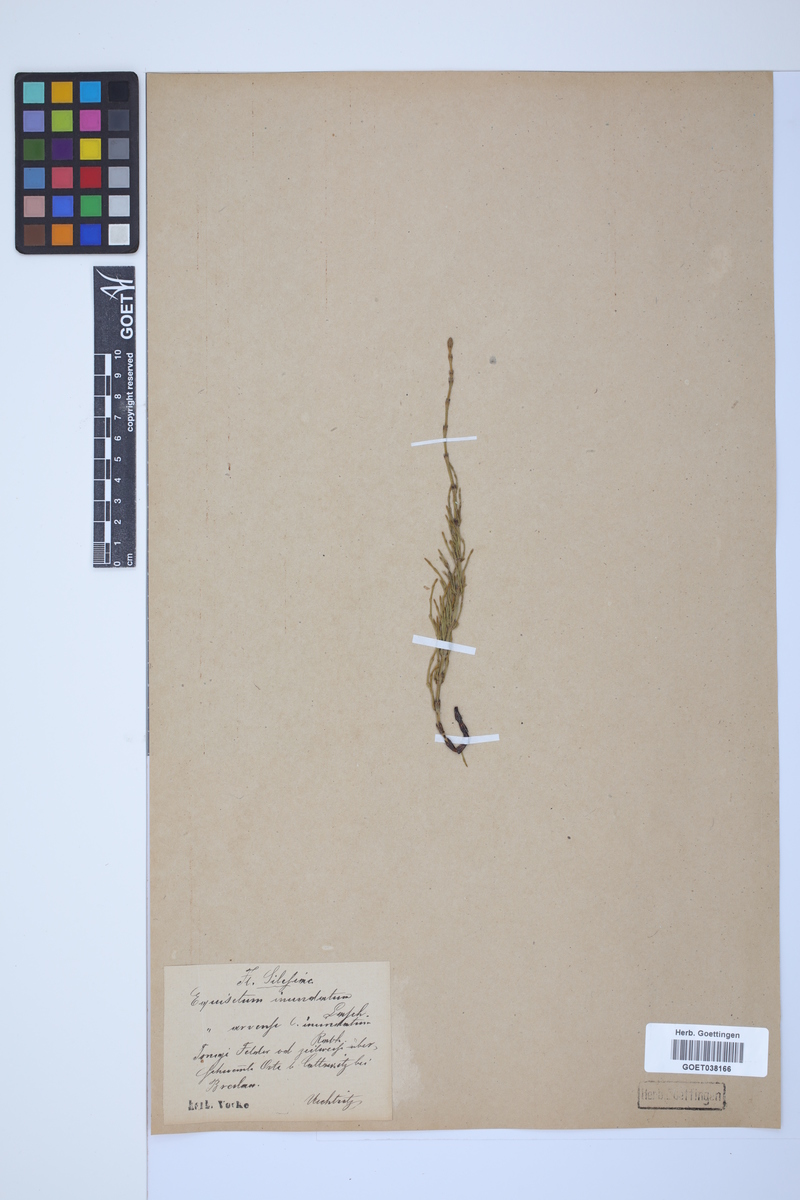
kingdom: Plantae
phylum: Tracheophyta
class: Polypodiopsida
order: Equisetales
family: Equisetaceae
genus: Equisetum
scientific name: Equisetum arvense
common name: Field horsetail
